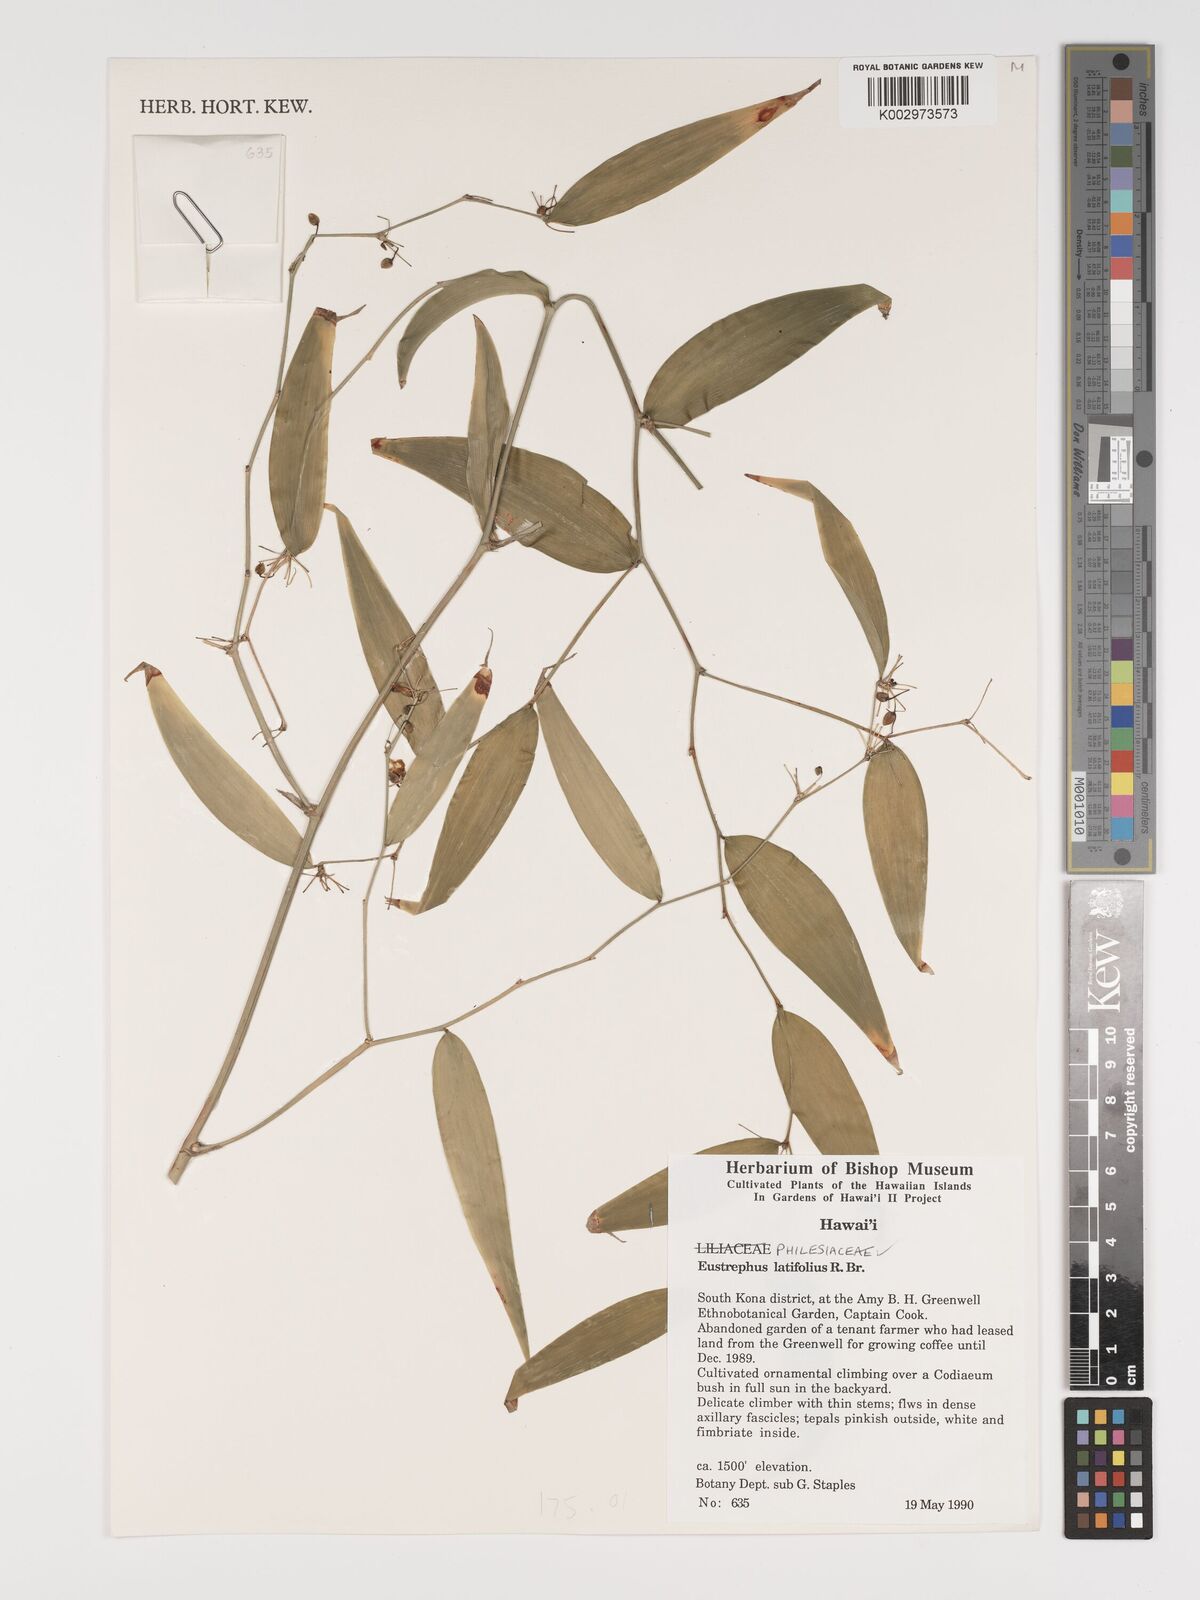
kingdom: Plantae
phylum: Tracheophyta
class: Liliopsida
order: Asparagales
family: Asparagaceae
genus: Eustrephus
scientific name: Eustrephus latifolius
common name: Orangevine
